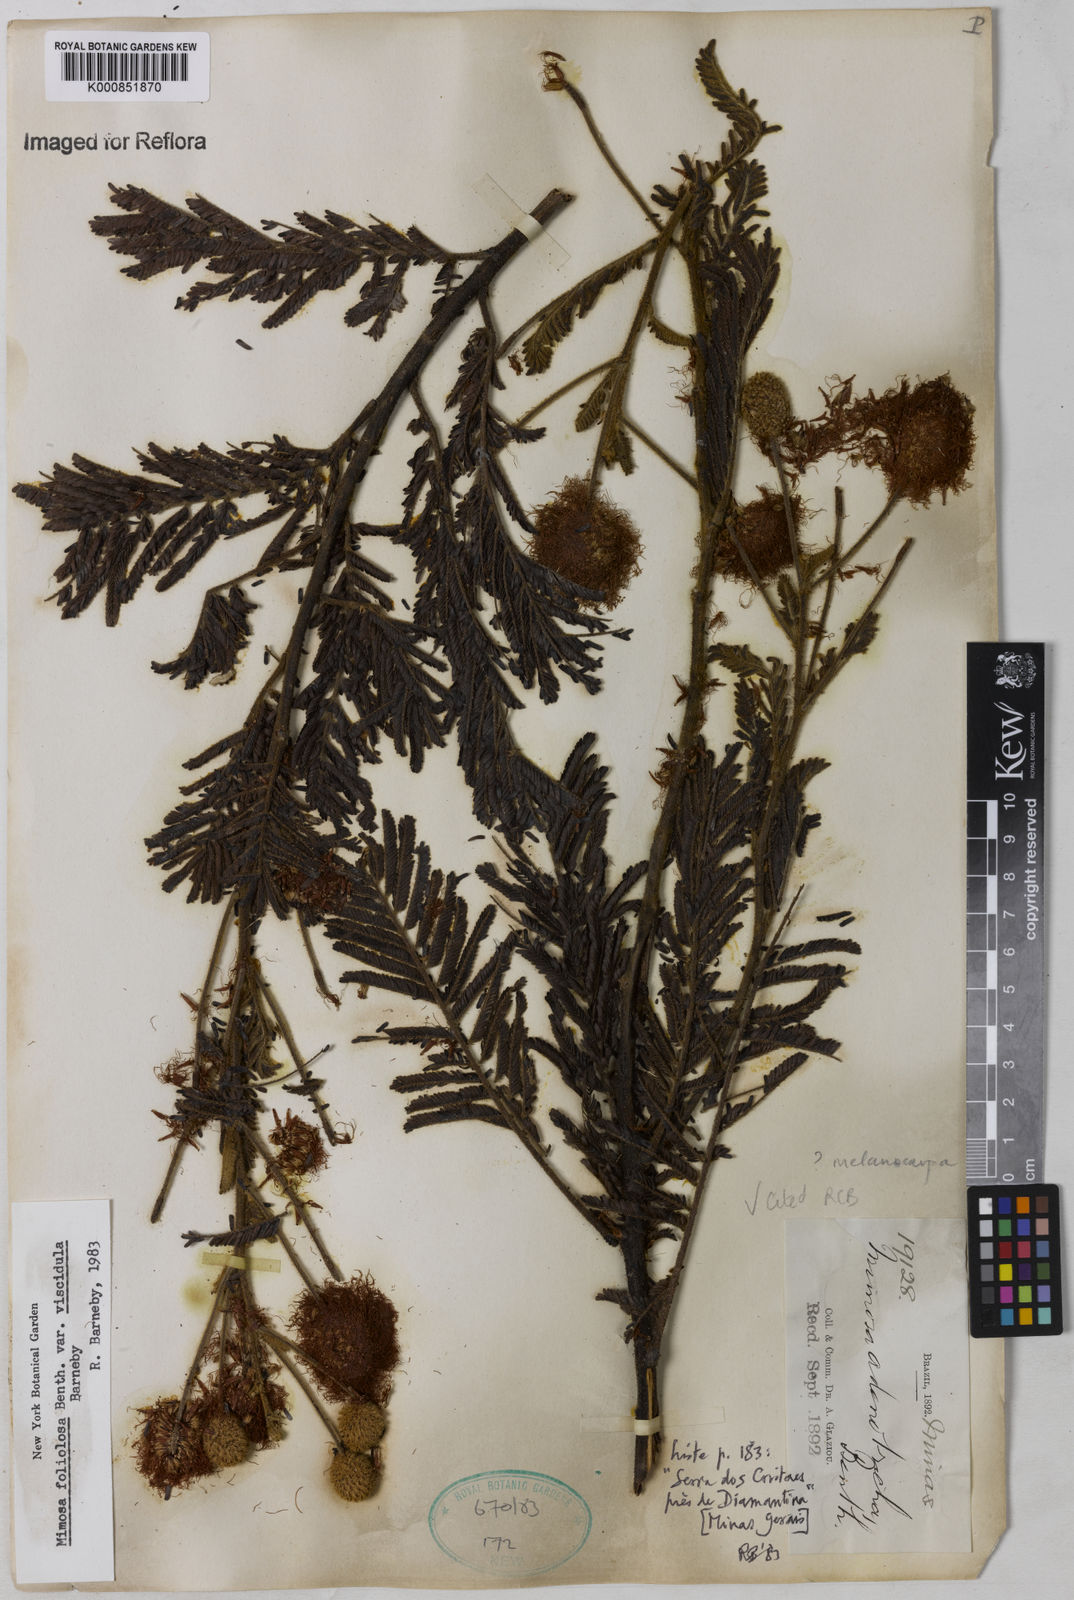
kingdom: Plantae
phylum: Tracheophyta
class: Magnoliopsida
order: Fabales
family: Fabaceae
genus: Mimosa
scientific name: Mimosa foliolosa
